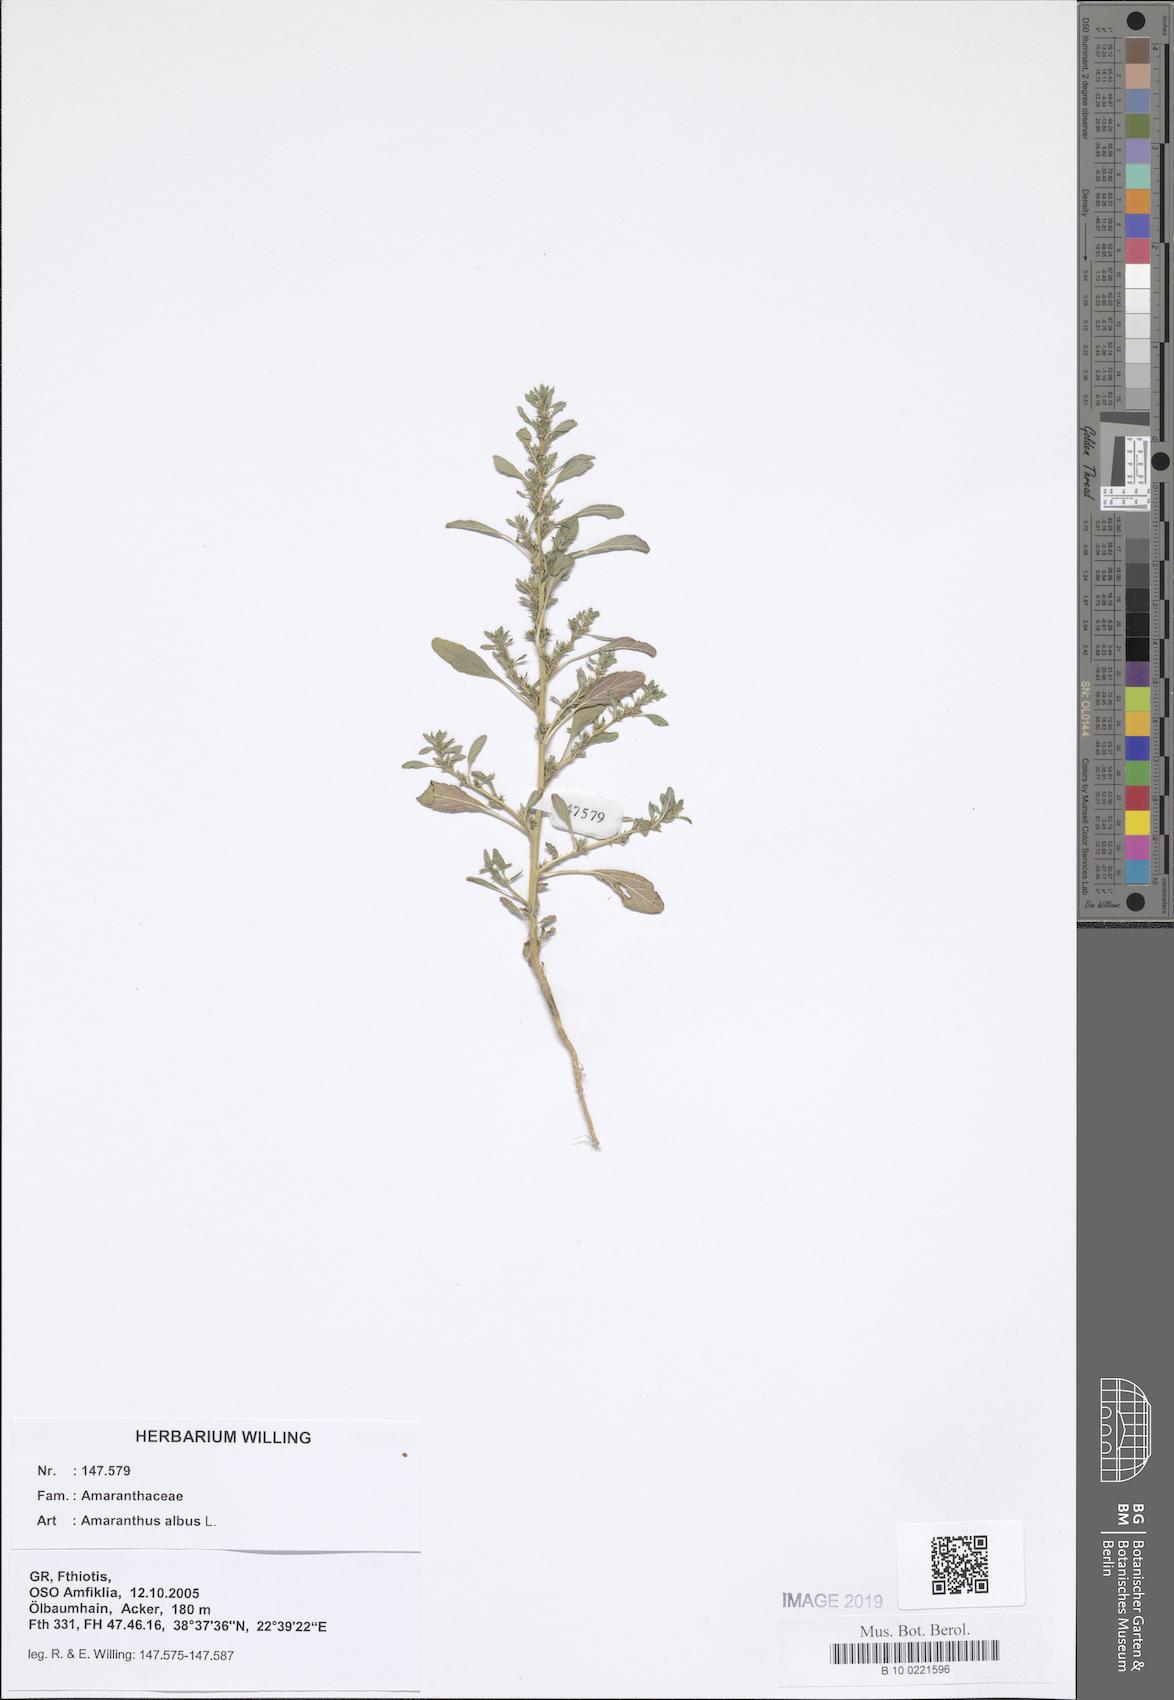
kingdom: Plantae
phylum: Tracheophyta
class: Magnoliopsida
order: Caryophyllales
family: Amaranthaceae
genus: Amaranthus
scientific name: Amaranthus albus
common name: White pigweed
